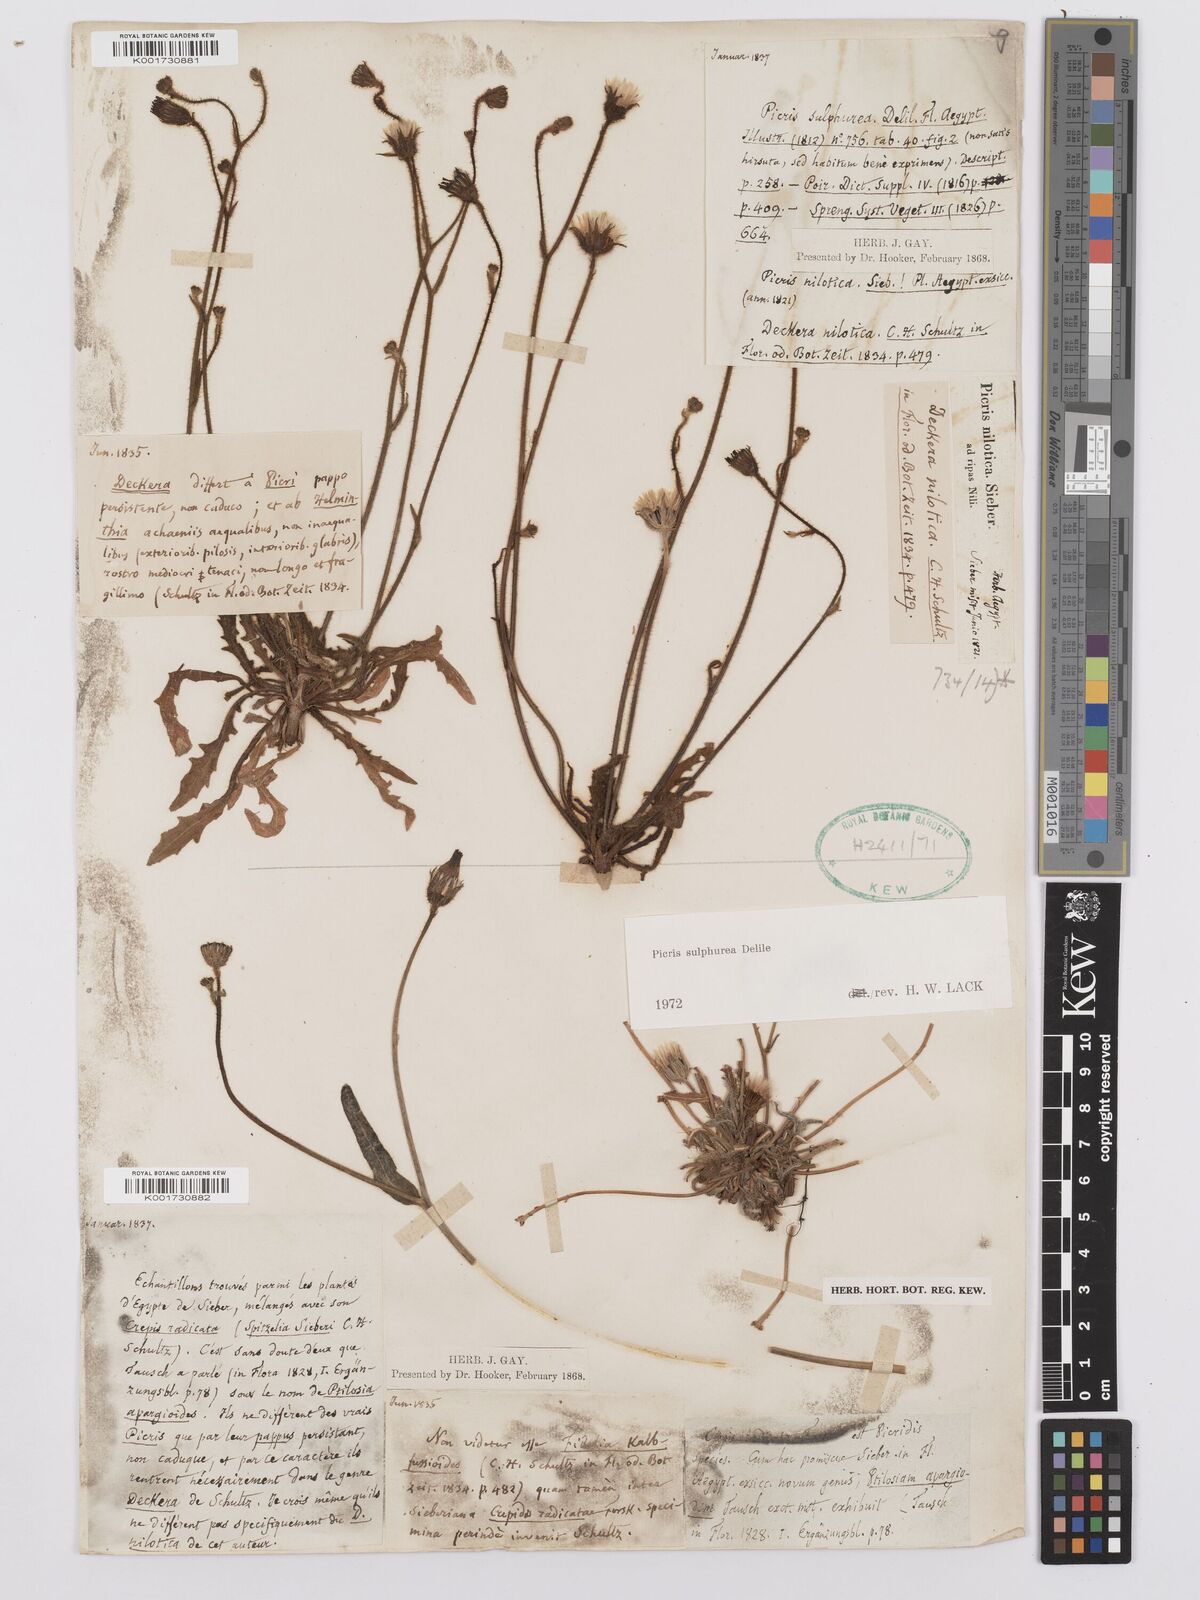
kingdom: Plantae
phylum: Tracheophyta
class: Magnoliopsida
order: Asterales
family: Asteraceae
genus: Picris
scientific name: Picris sulphurea
